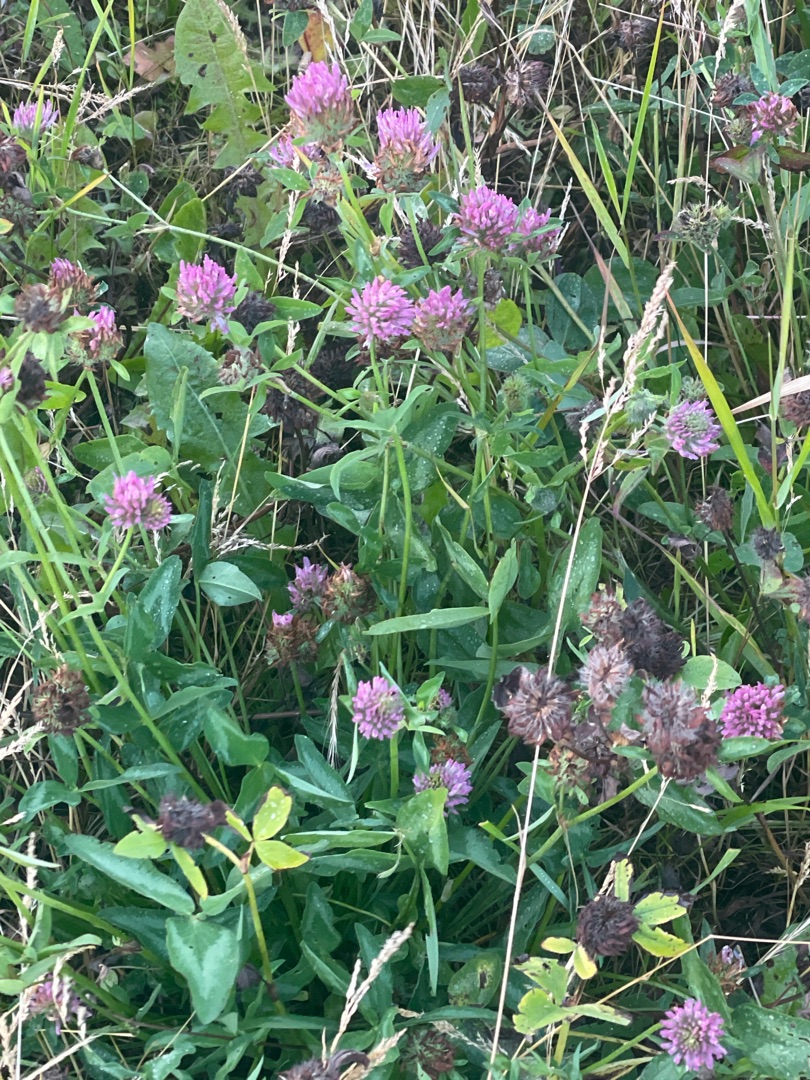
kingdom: Plantae
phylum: Tracheophyta
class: Magnoliopsida
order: Fabales
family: Fabaceae
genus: Trifolium
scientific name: Trifolium pratense
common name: Rød-kløver
